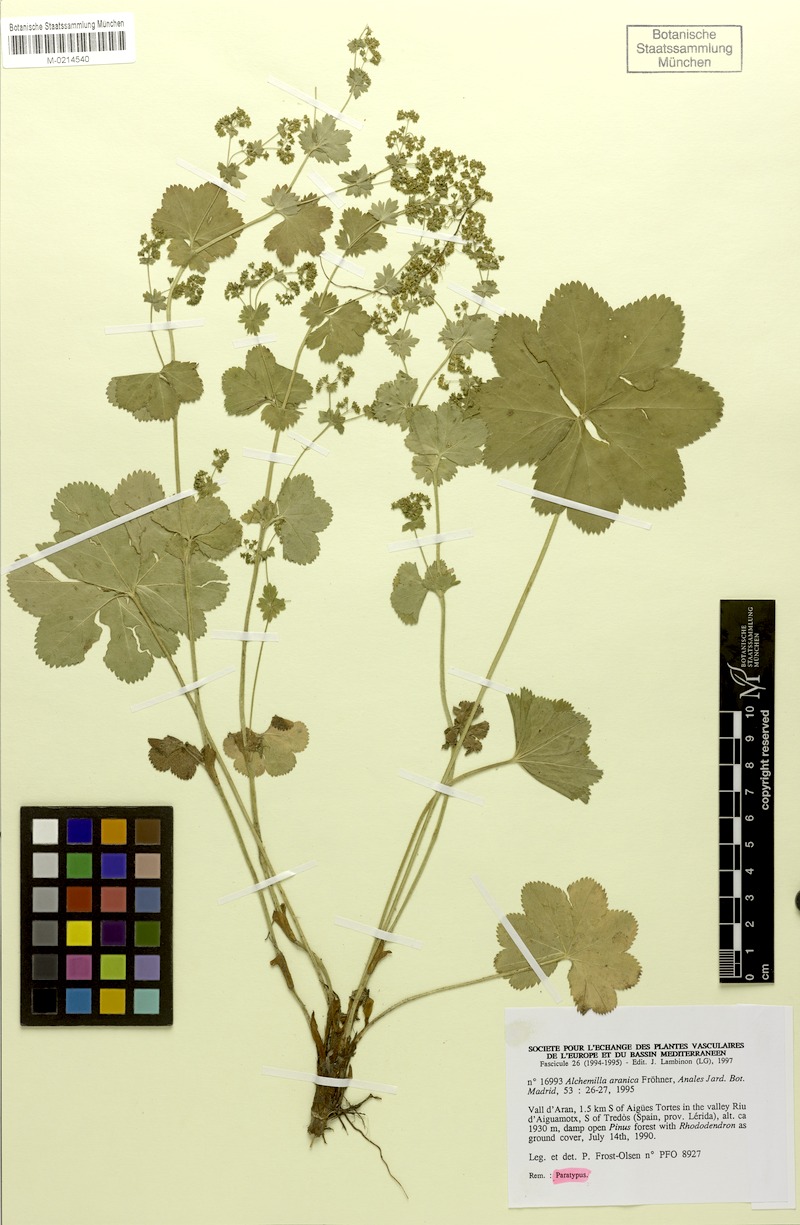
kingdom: Plantae
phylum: Tracheophyta
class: Magnoliopsida
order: Rosales
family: Rosaceae
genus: Alchemilla
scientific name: Alchemilla aranica
